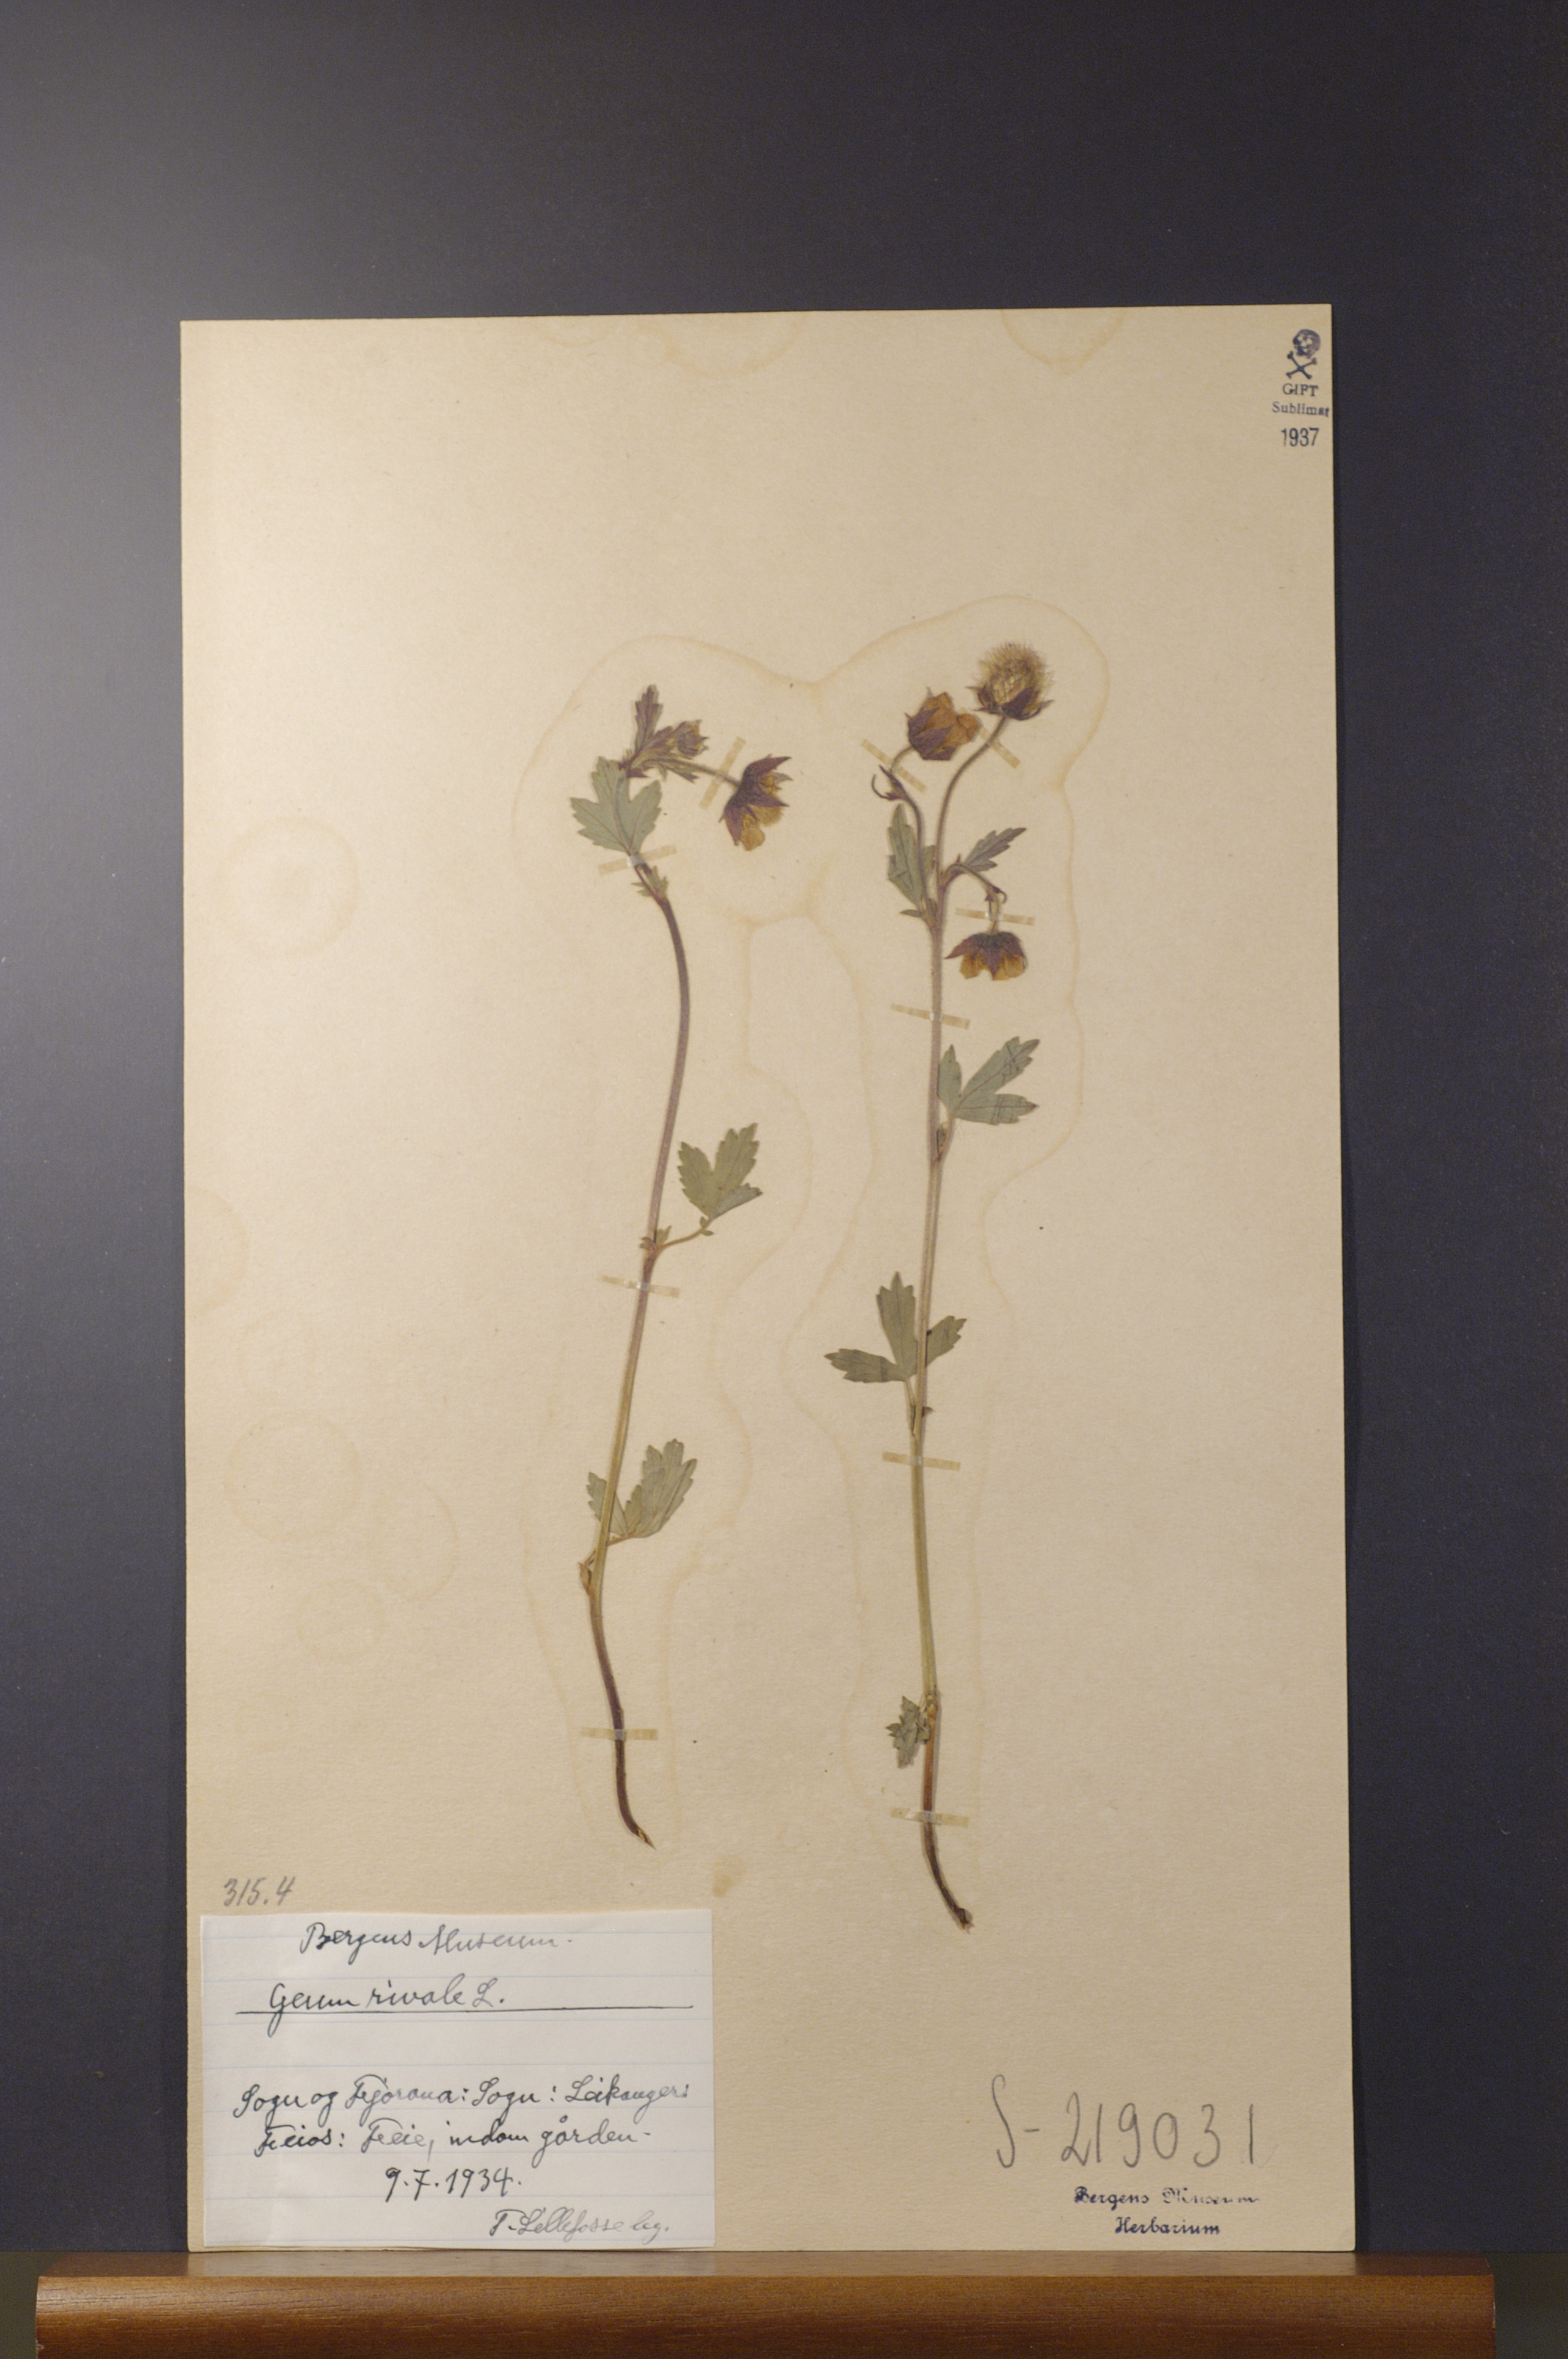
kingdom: Plantae
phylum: Tracheophyta
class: Magnoliopsida
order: Rosales
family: Rosaceae
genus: Geum
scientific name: Geum rivale
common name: Water avens
